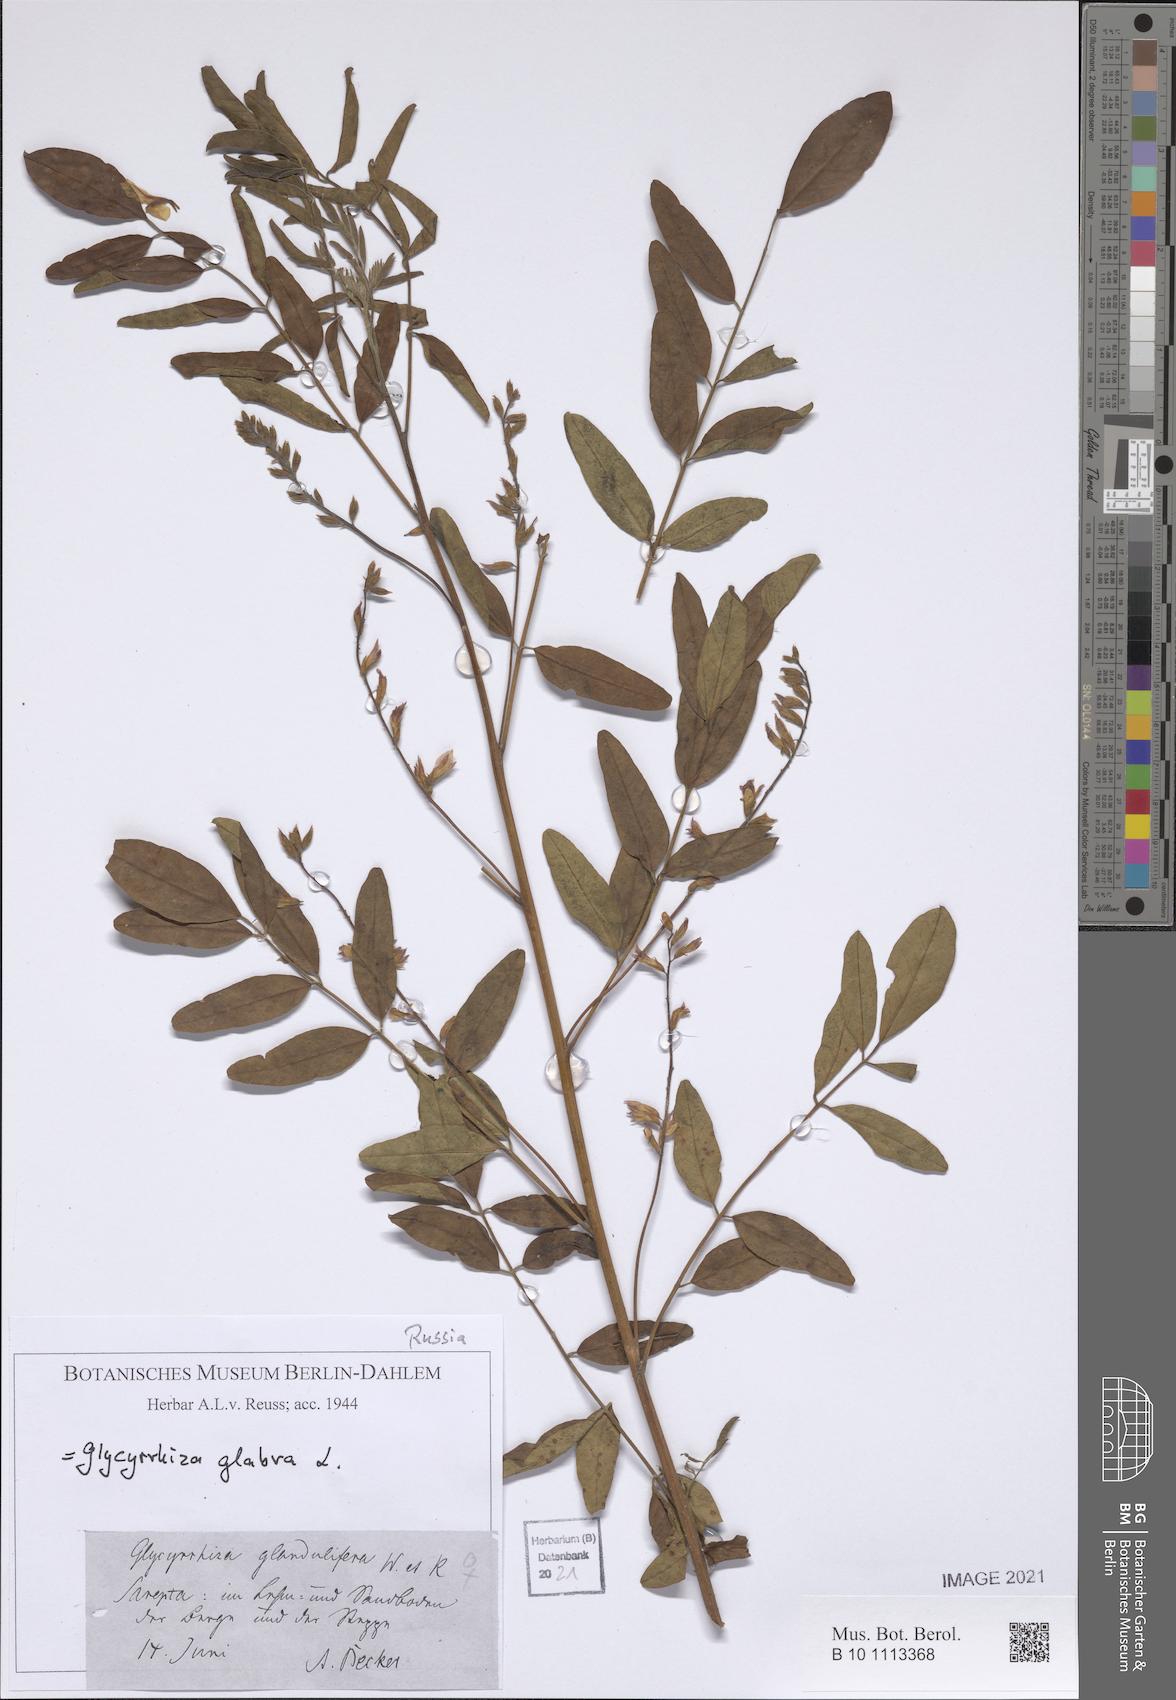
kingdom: Plantae
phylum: Tracheophyta
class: Magnoliopsida
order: Fabales
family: Fabaceae
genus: Glycyrrhiza
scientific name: Glycyrrhiza glabra
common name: Liquorice
